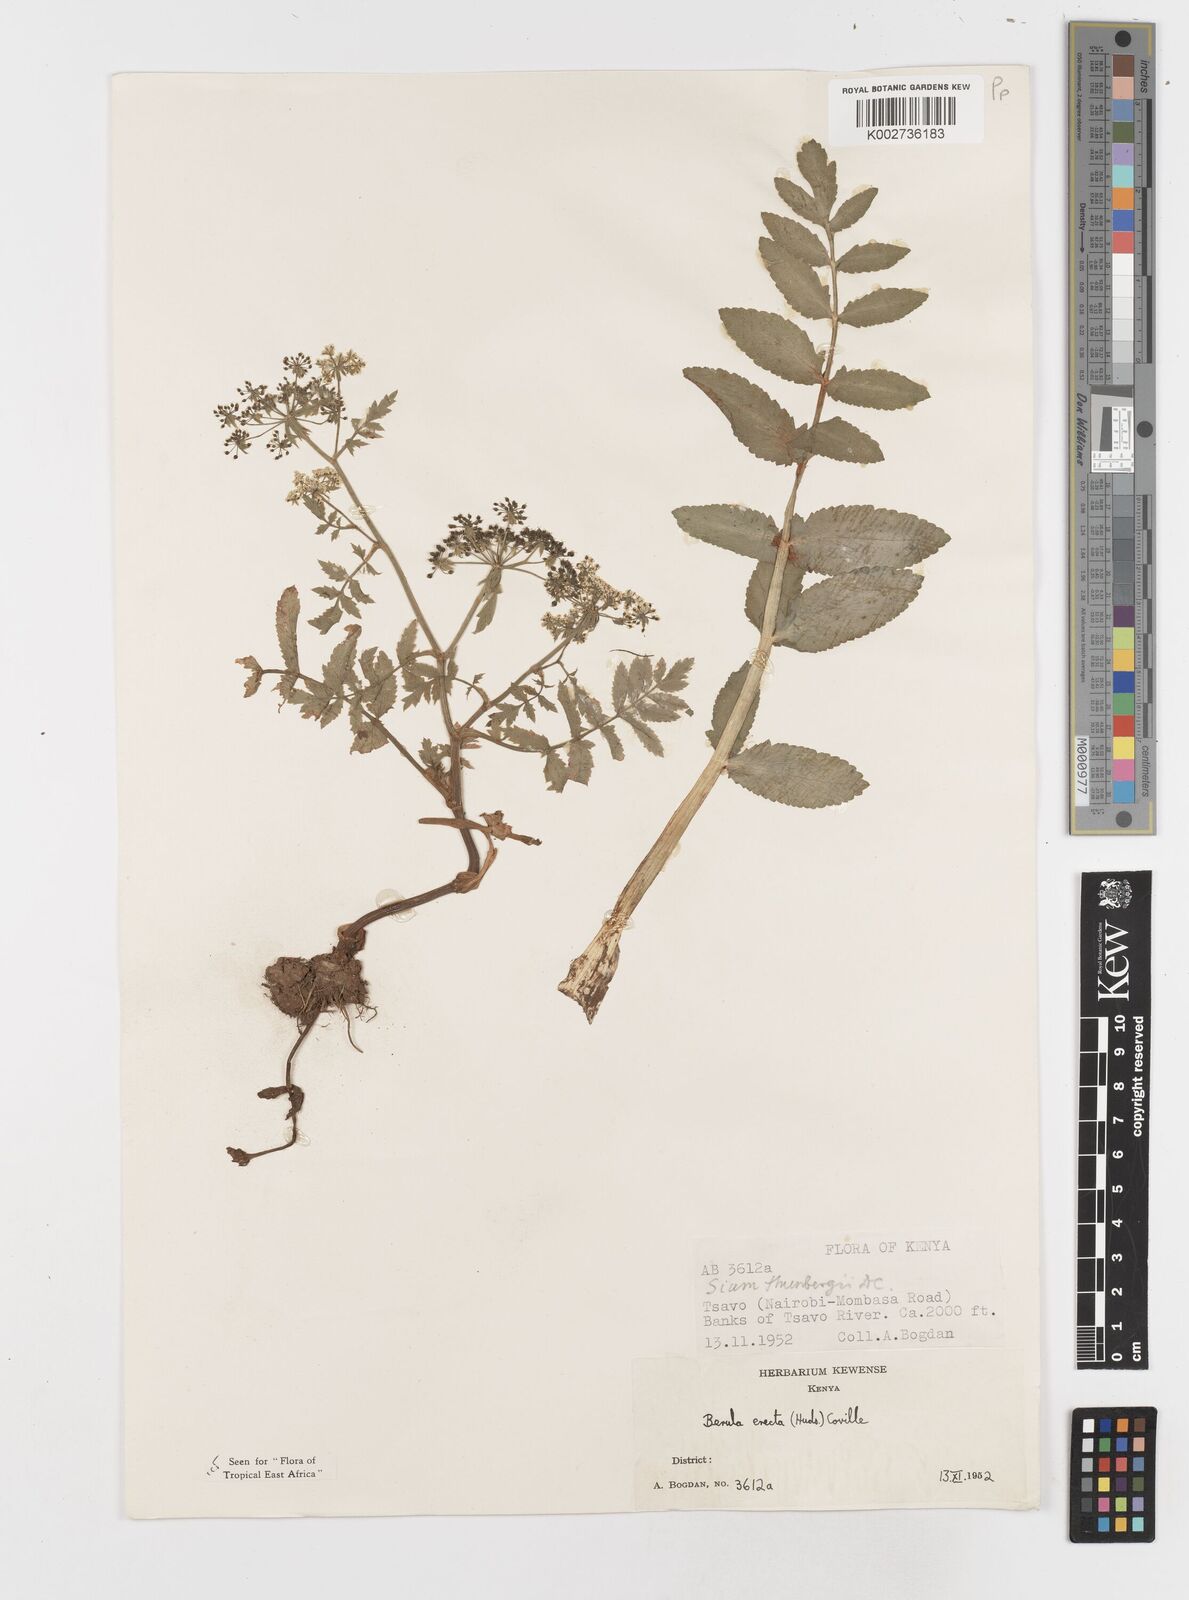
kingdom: Plantae
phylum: Tracheophyta
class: Magnoliopsida
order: Apiales
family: Apiaceae
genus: Berula
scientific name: Berula erecta
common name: Lesser water-parsnip
